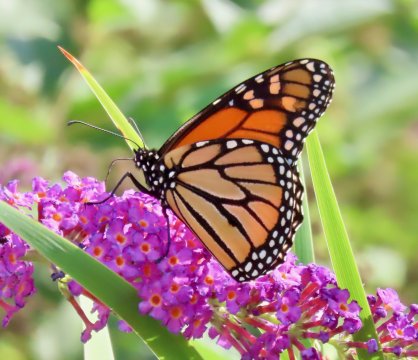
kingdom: Animalia
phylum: Arthropoda
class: Insecta
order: Lepidoptera
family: Nymphalidae
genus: Danaus
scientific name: Danaus plexippus
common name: Monarch
